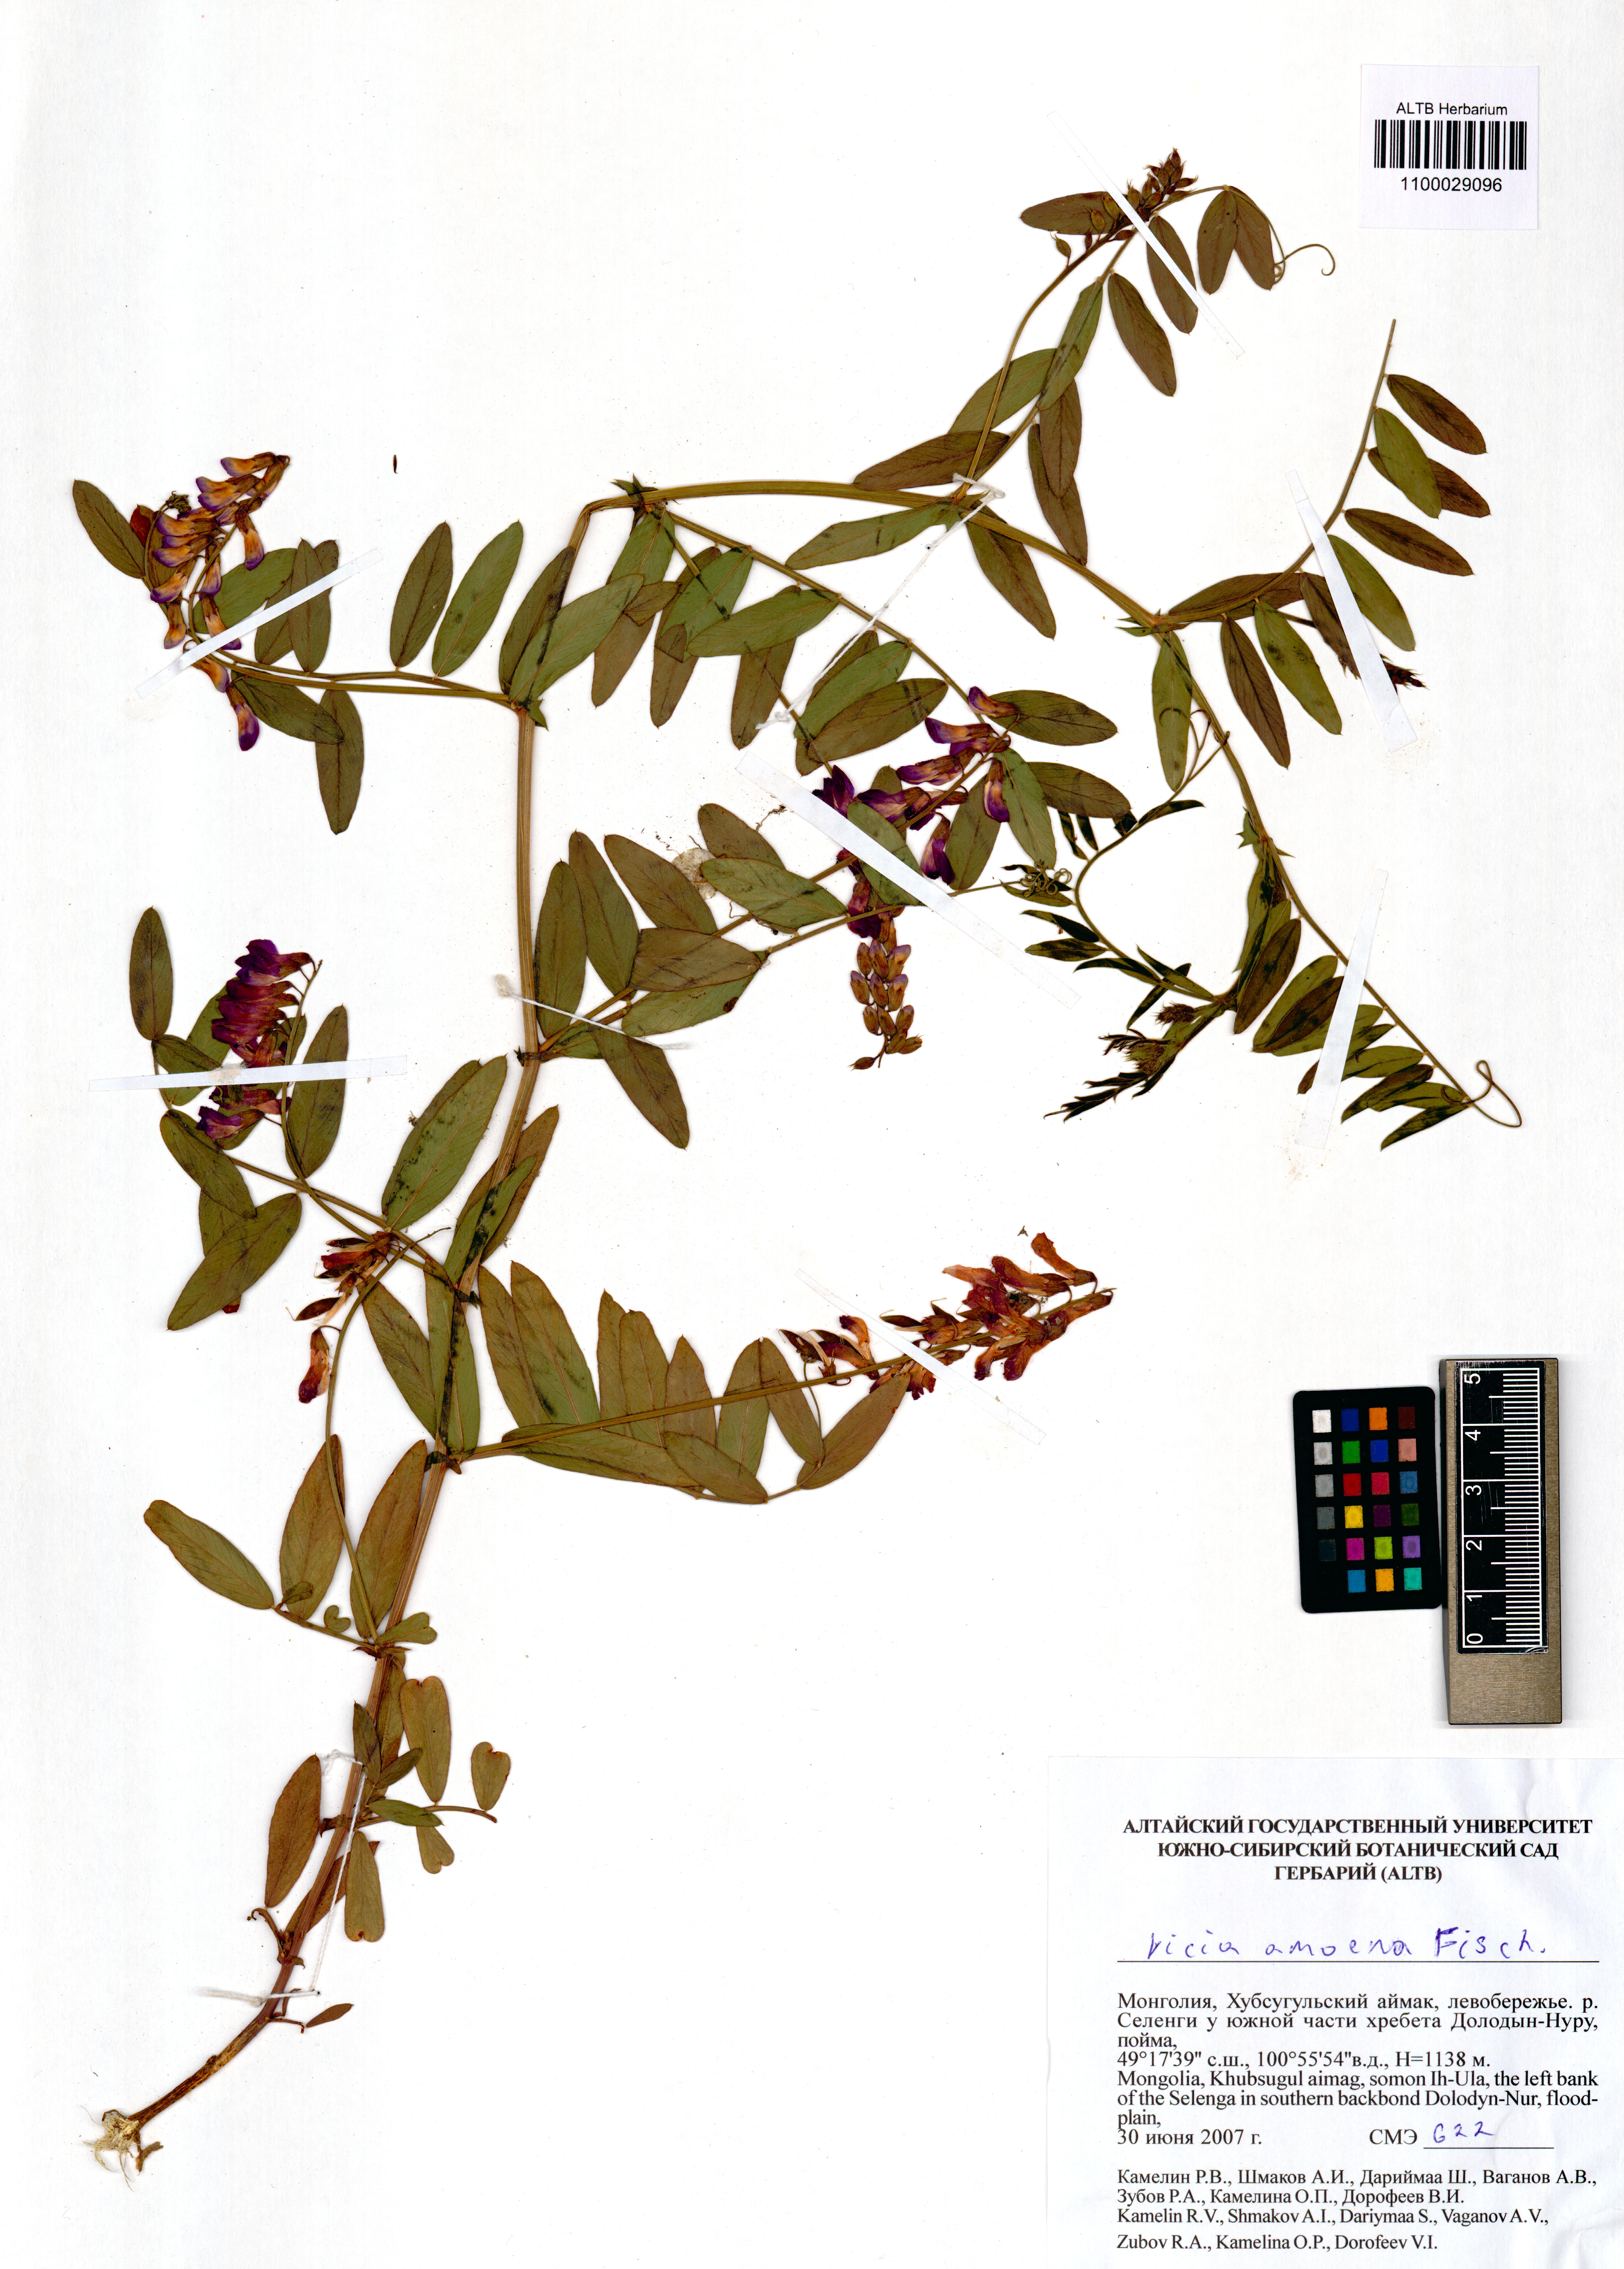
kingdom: Plantae
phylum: Tracheophyta
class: Magnoliopsida
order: Fabales
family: Fabaceae
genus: Vicia
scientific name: Vicia amoena
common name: Cheder ebs
